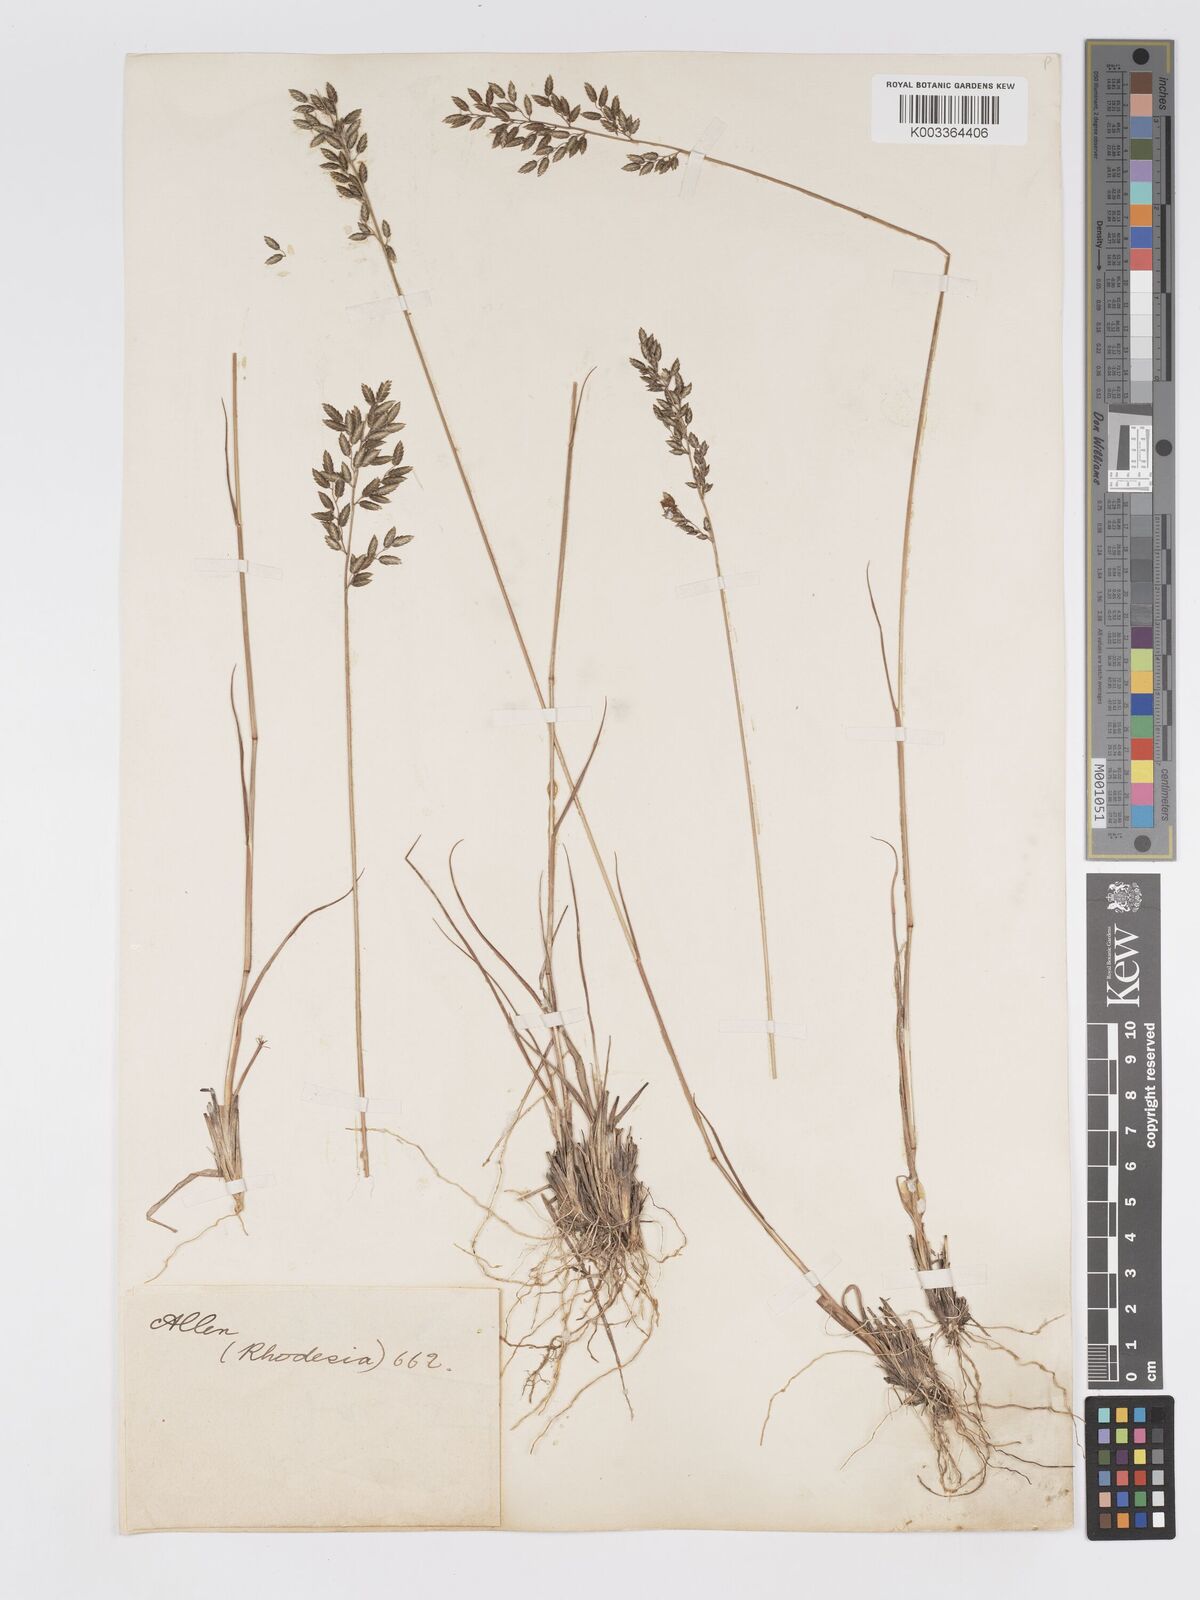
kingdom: Plantae
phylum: Tracheophyta
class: Liliopsida
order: Poales
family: Poaceae
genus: Eragrostis
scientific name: Eragrostis racemosa
